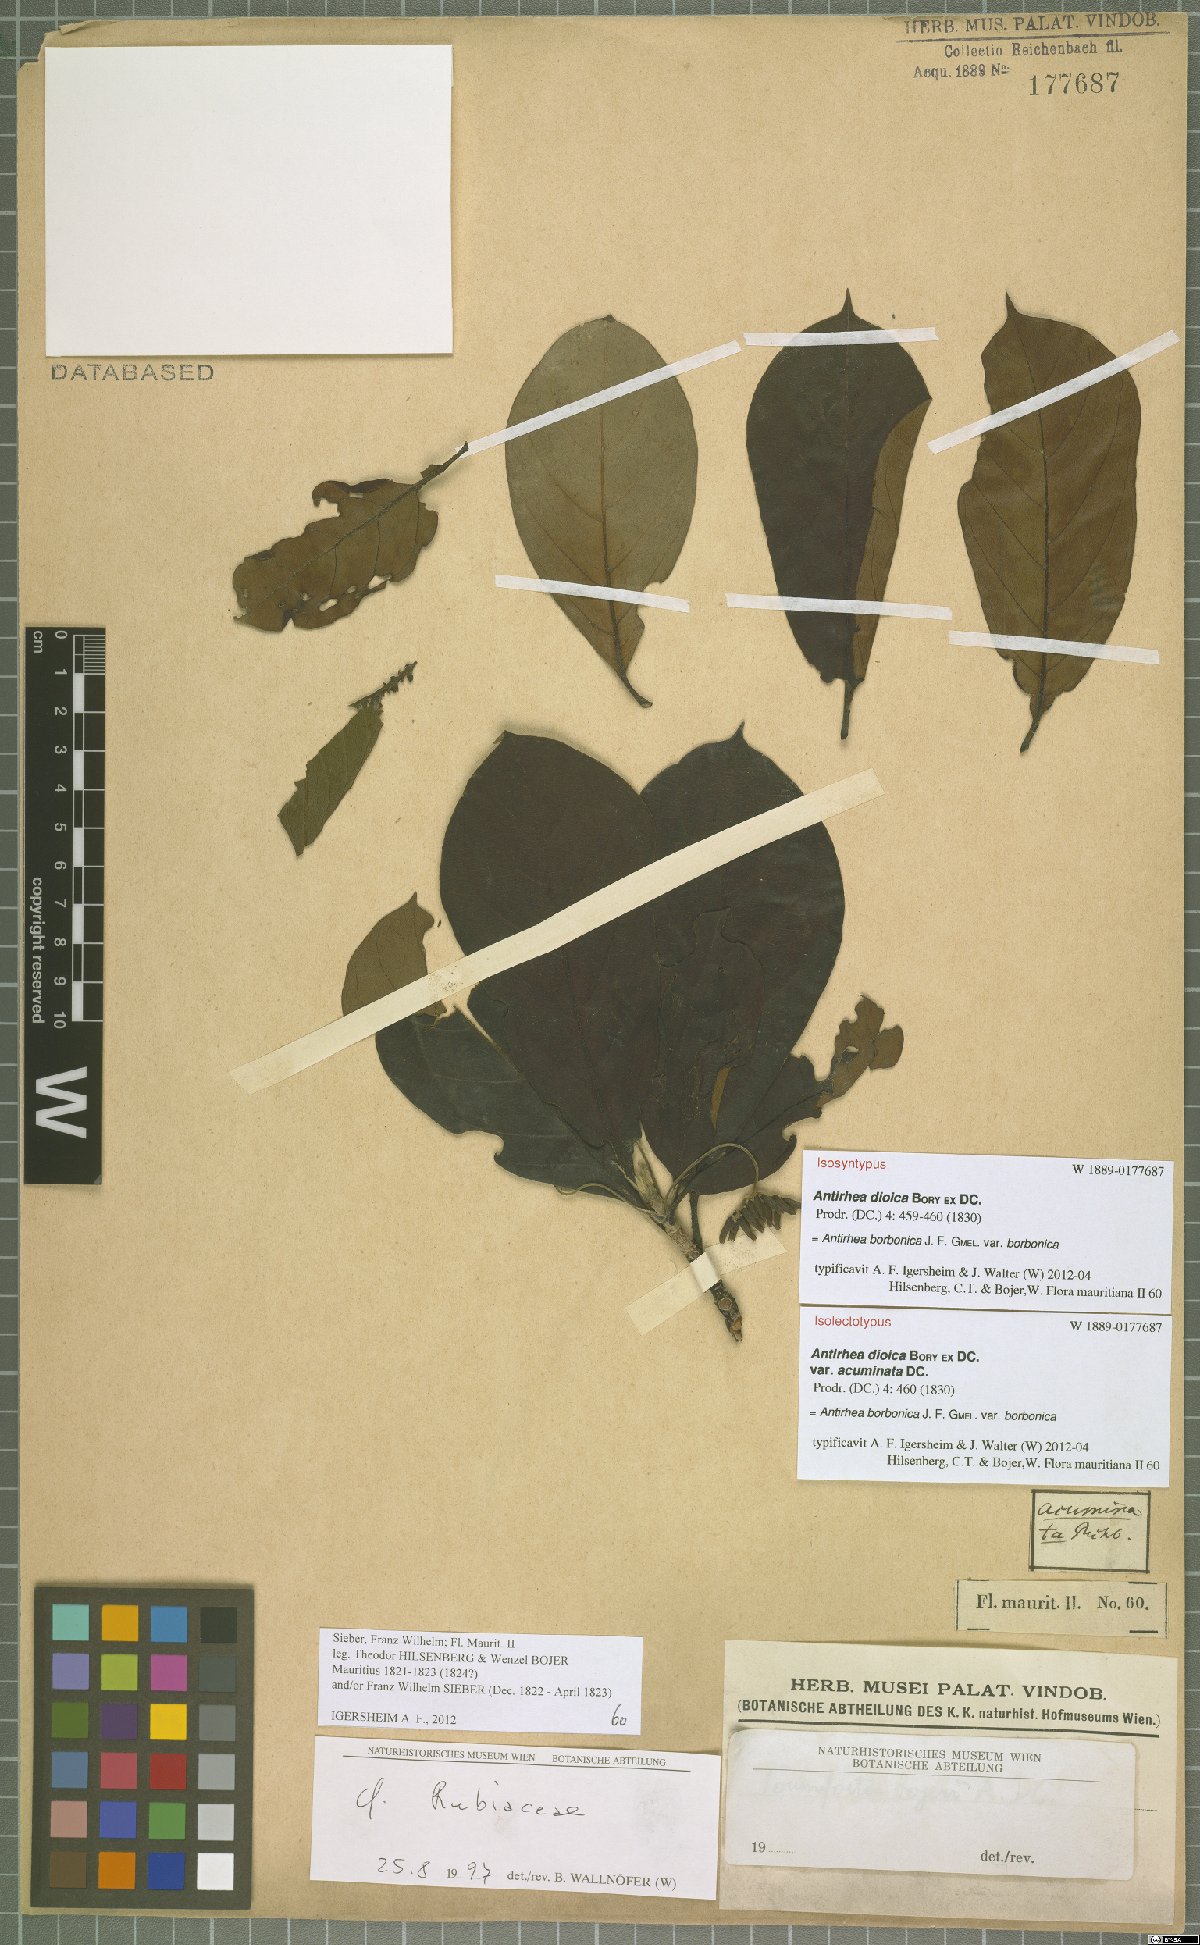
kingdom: Plantae
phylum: Tracheophyta
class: Magnoliopsida
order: Gentianales
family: Rubiaceae
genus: Antirhea
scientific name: Antirhea borbonica
